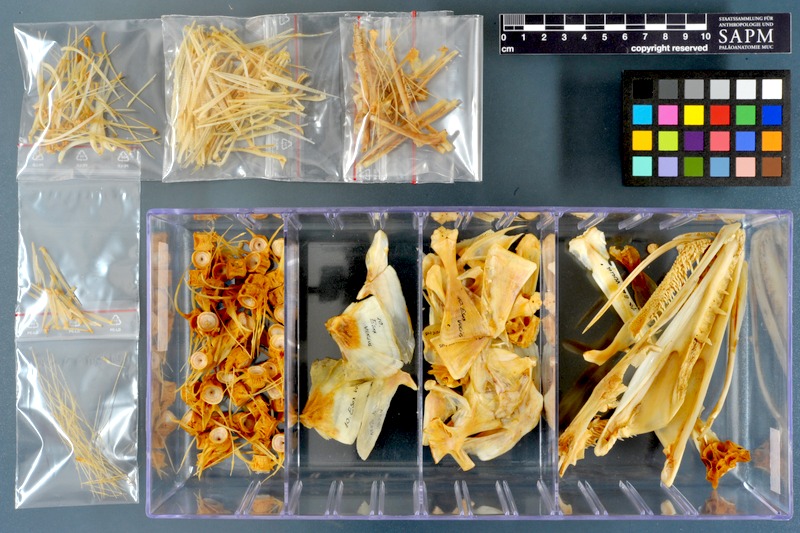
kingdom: Animalia
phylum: Chordata
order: Esociformes
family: Esocidae
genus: Esox
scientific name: Esox lucius
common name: Northern pike
